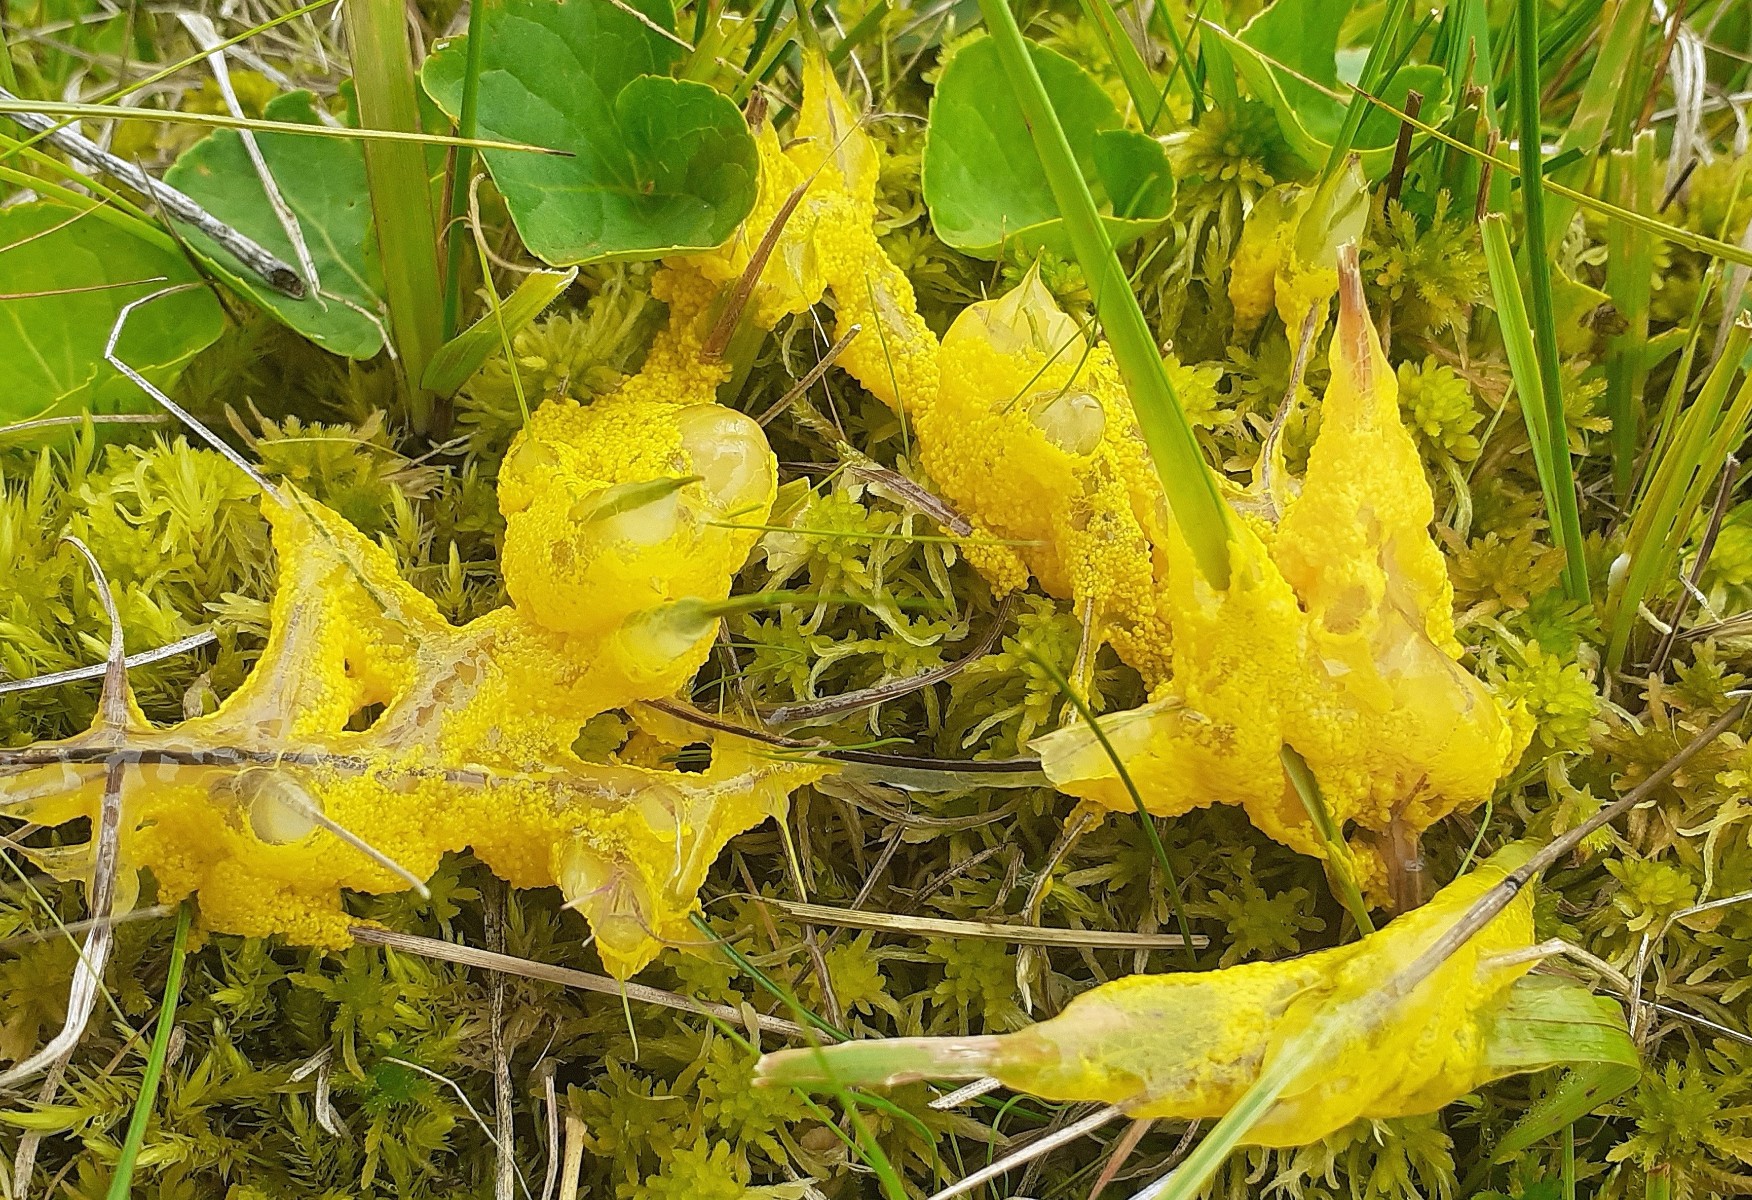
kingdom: Protozoa
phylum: Mycetozoa
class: Myxomycetes
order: Physarales
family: Physaraceae
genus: Badhamia
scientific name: Badhamia lilacina
